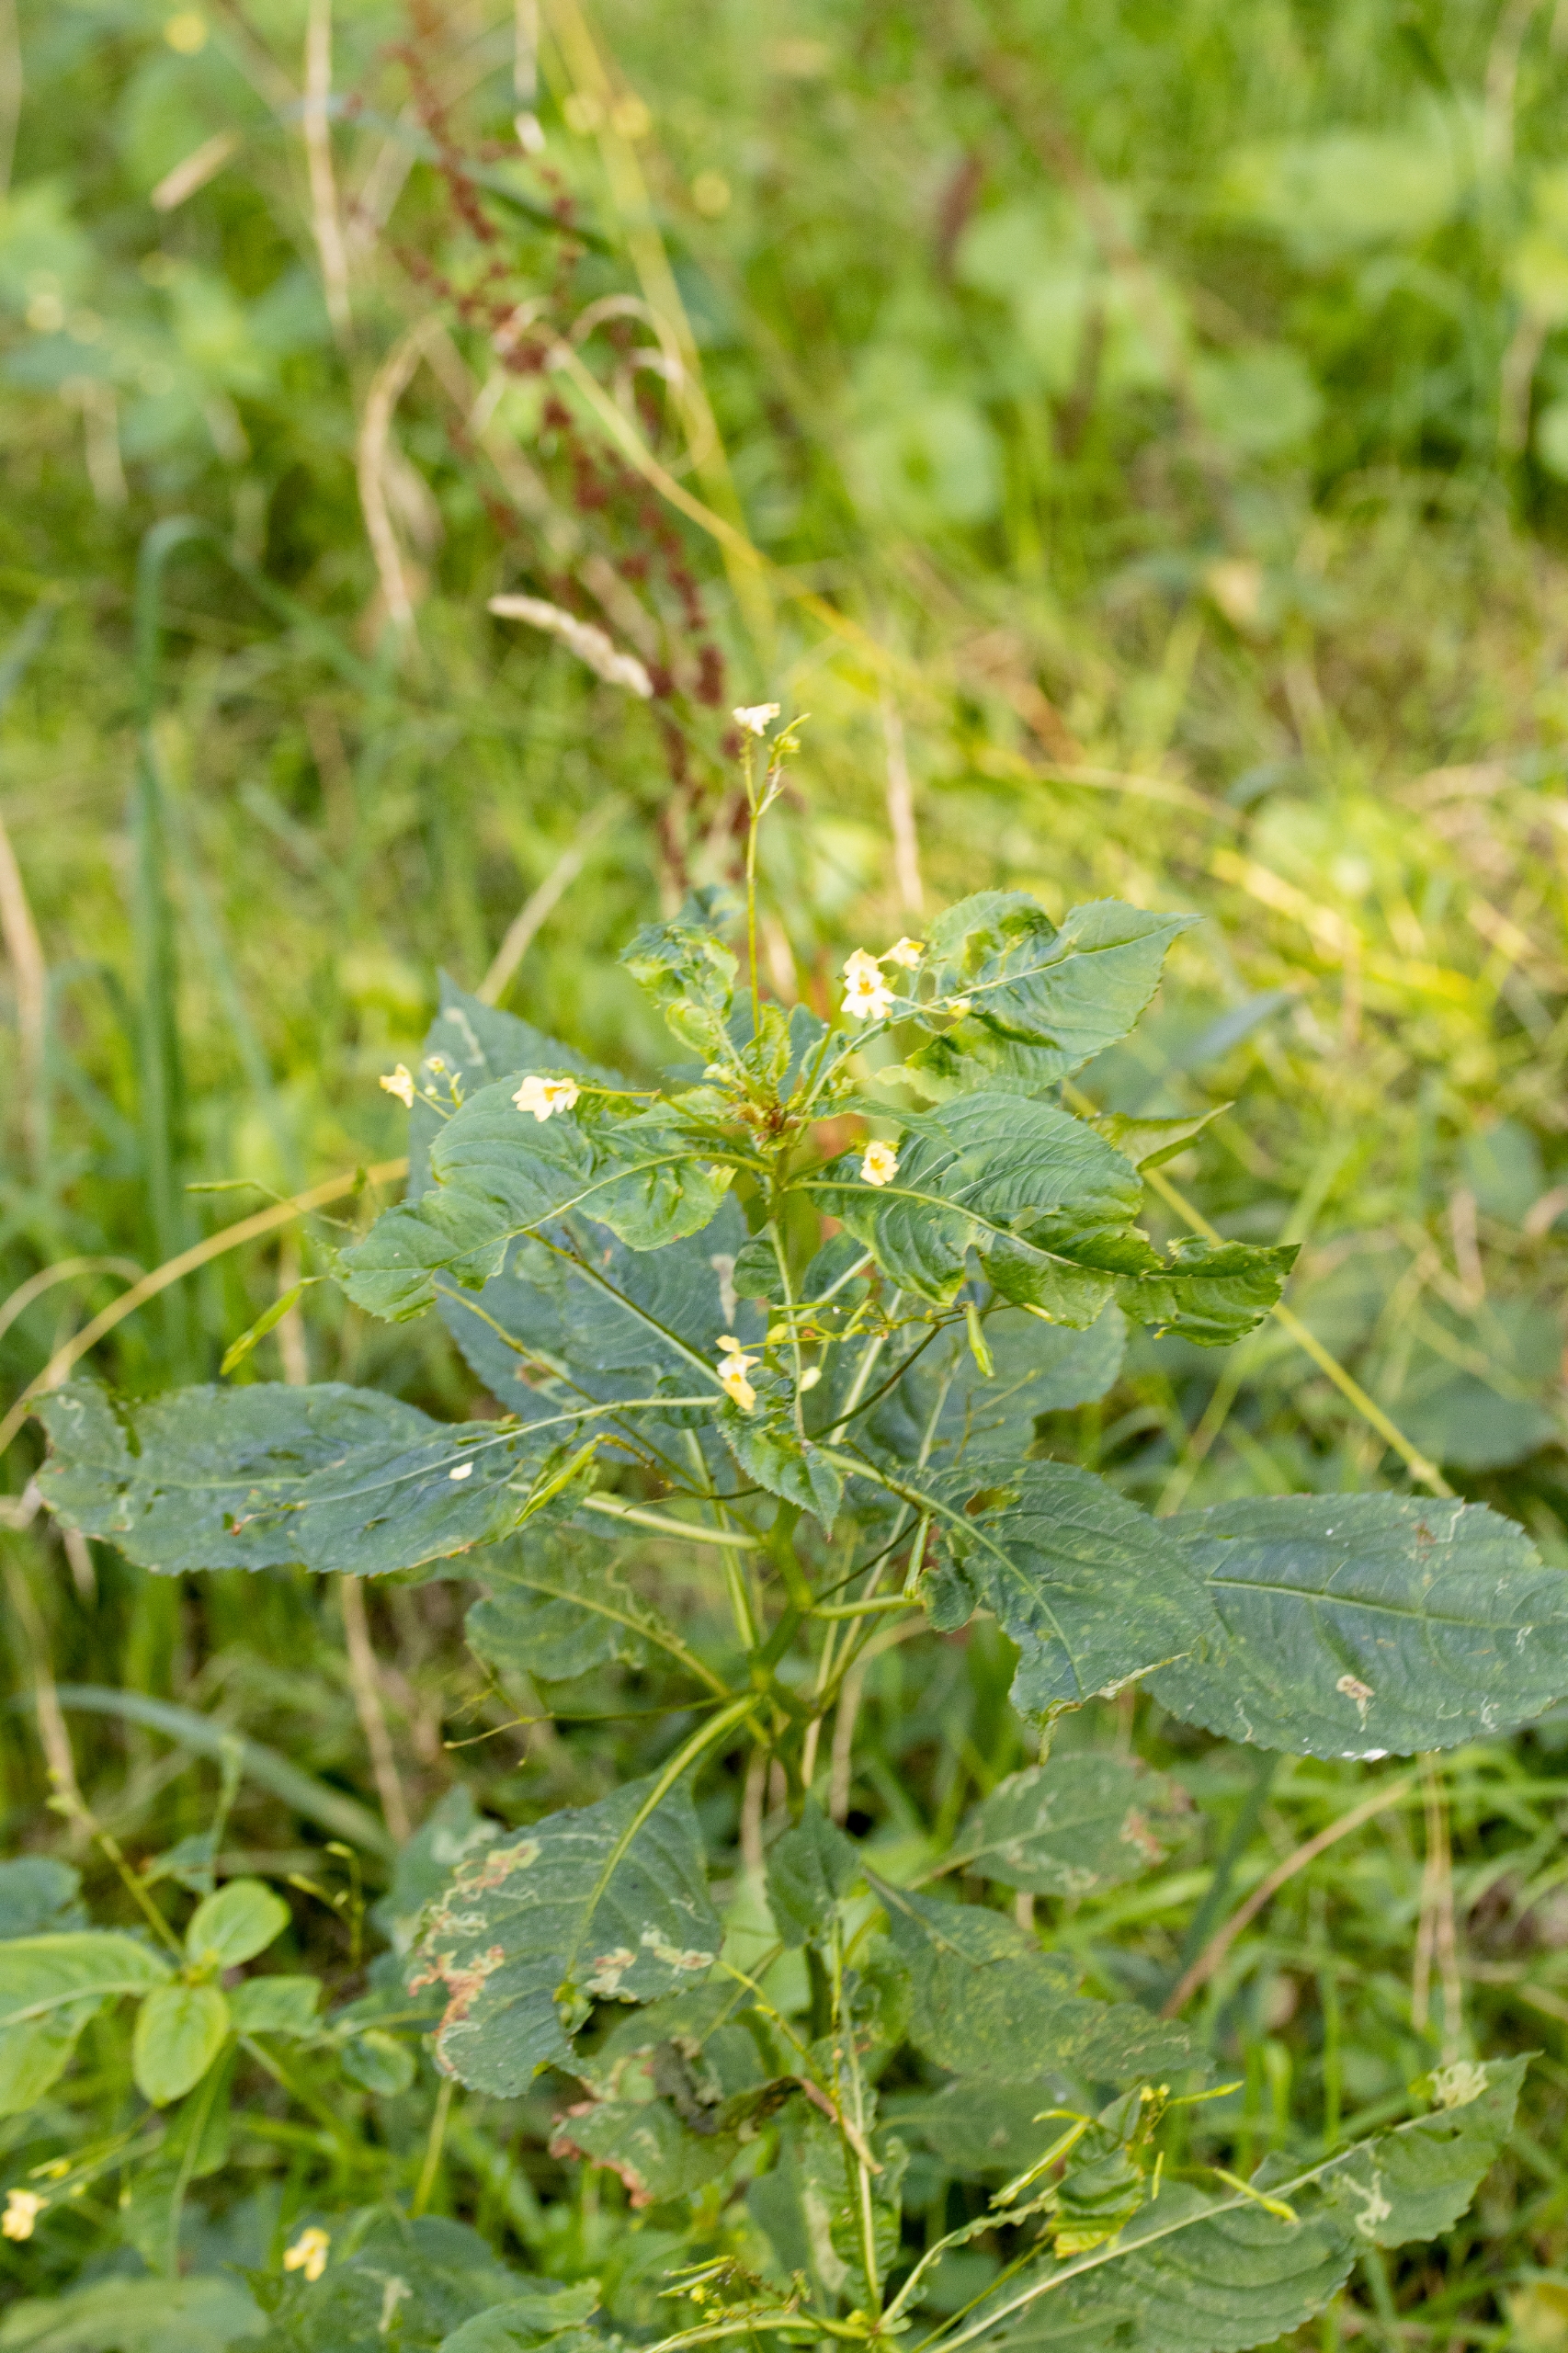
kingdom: Plantae
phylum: Tracheophyta
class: Magnoliopsida
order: Ericales
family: Balsaminaceae
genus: Impatiens
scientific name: Impatiens parviflora
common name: Småblomstret balsamin
